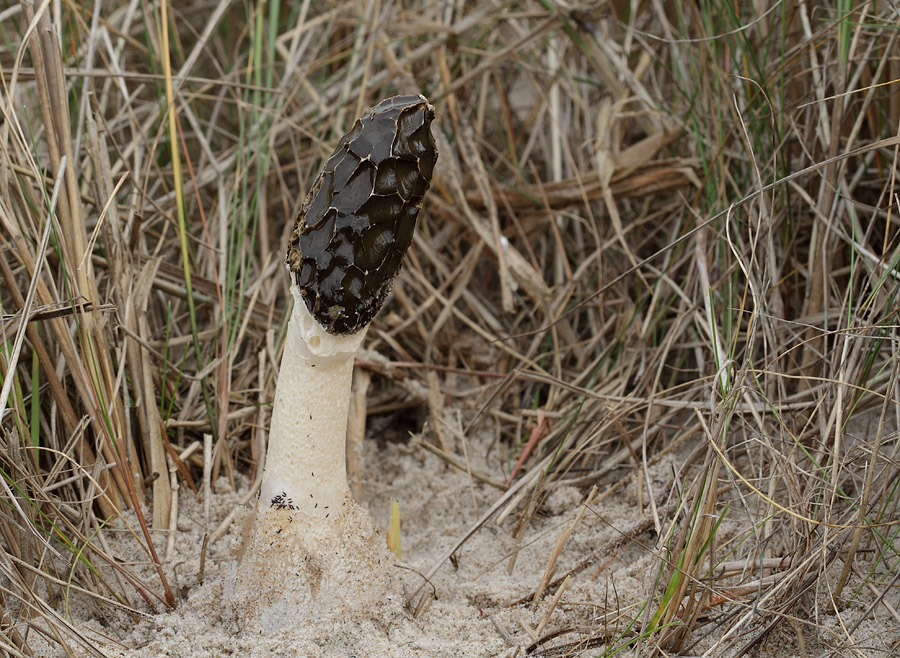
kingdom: Fungi
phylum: Basidiomycota
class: Agaricomycetes
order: Phallales
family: Phallaceae
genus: Phallus
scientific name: Phallus hadriani
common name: sand-stinksvamp
